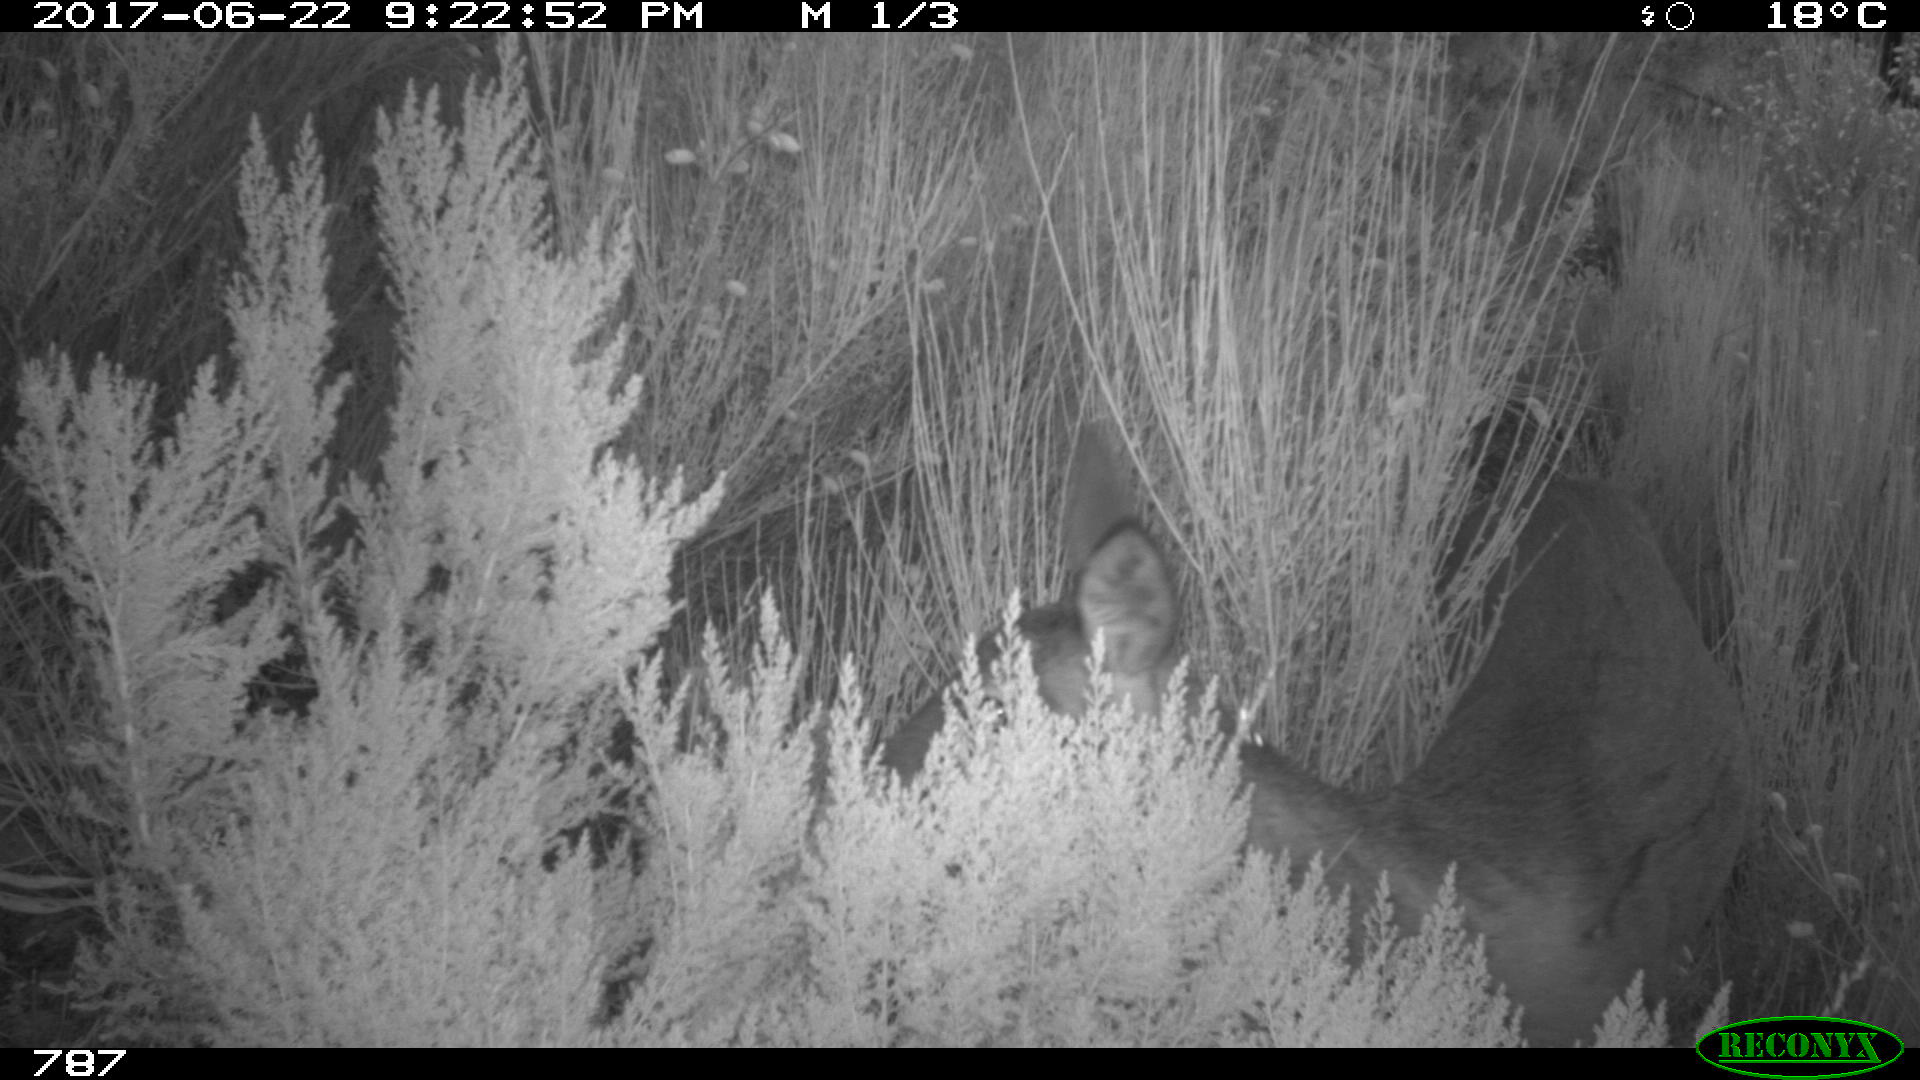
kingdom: Animalia
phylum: Chordata
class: Mammalia
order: Artiodactyla
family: Cervidae
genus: Capreolus
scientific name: Capreolus capreolus
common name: Western roe deer
